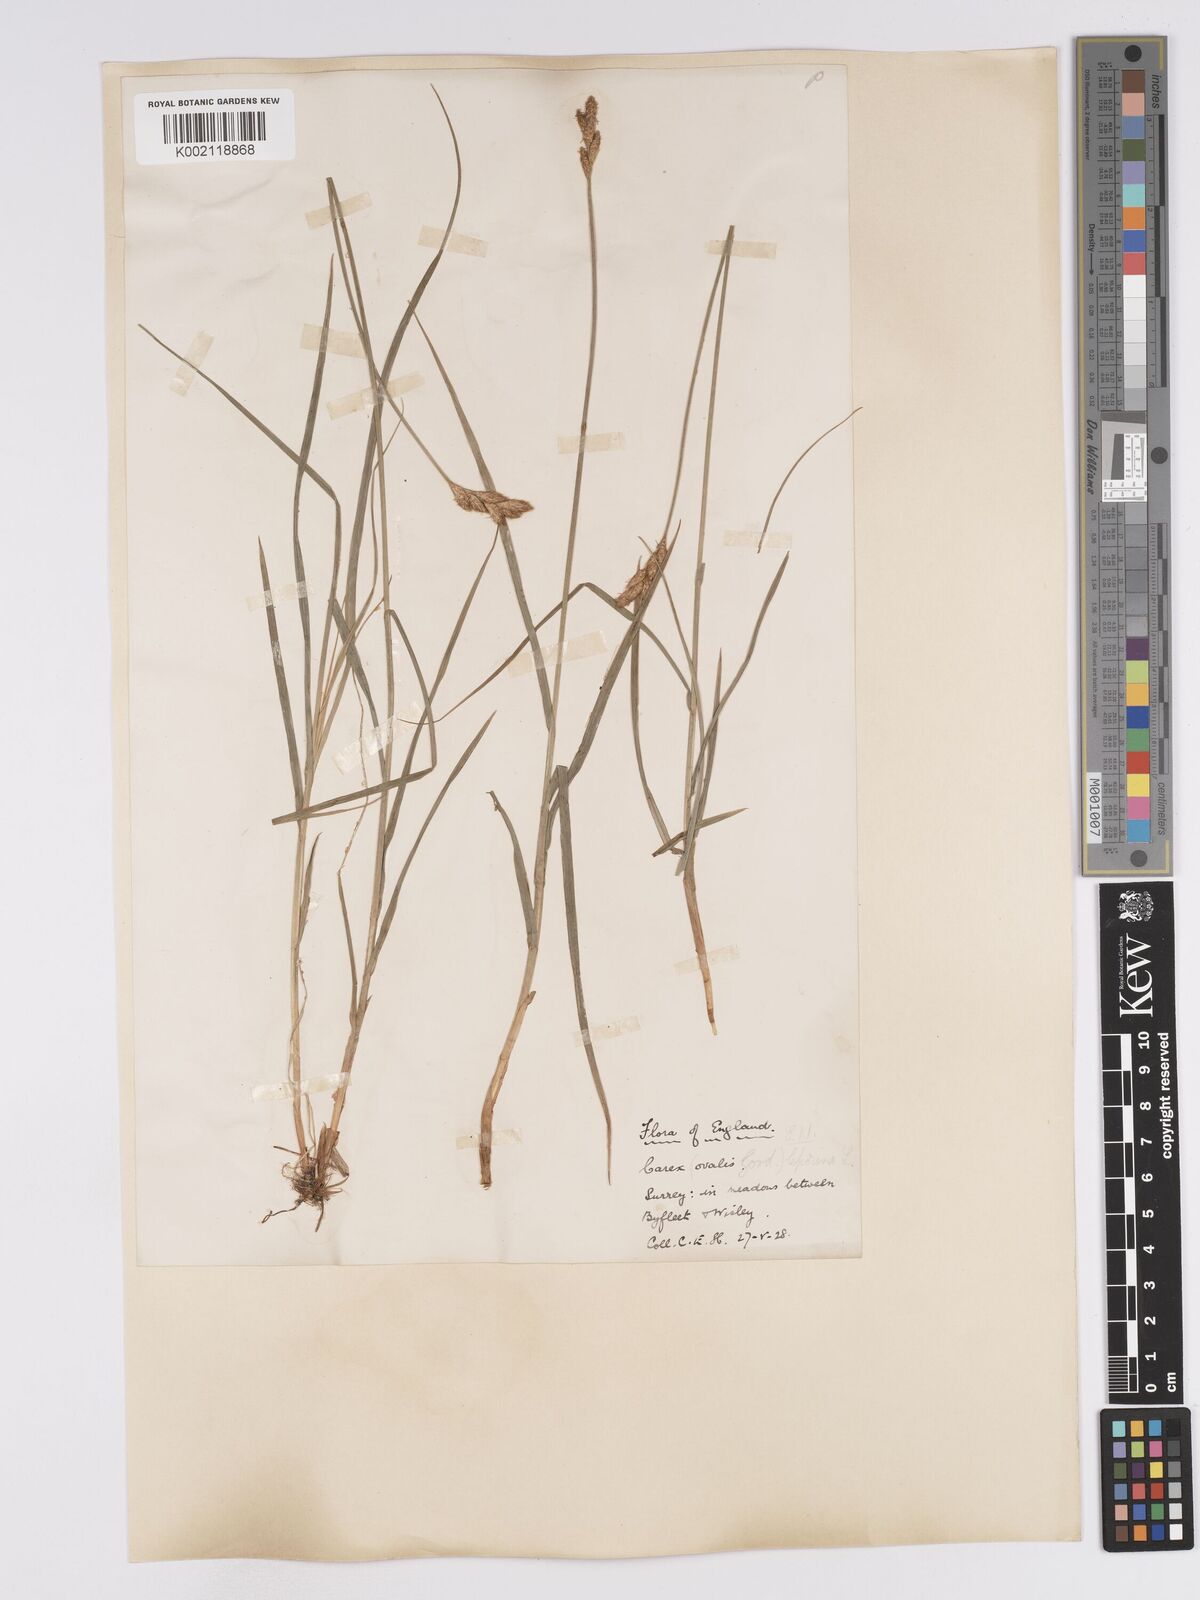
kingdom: Plantae
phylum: Tracheophyta
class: Liliopsida
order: Poales
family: Cyperaceae
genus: Carex
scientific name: Carex leporina
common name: Oval sedge
